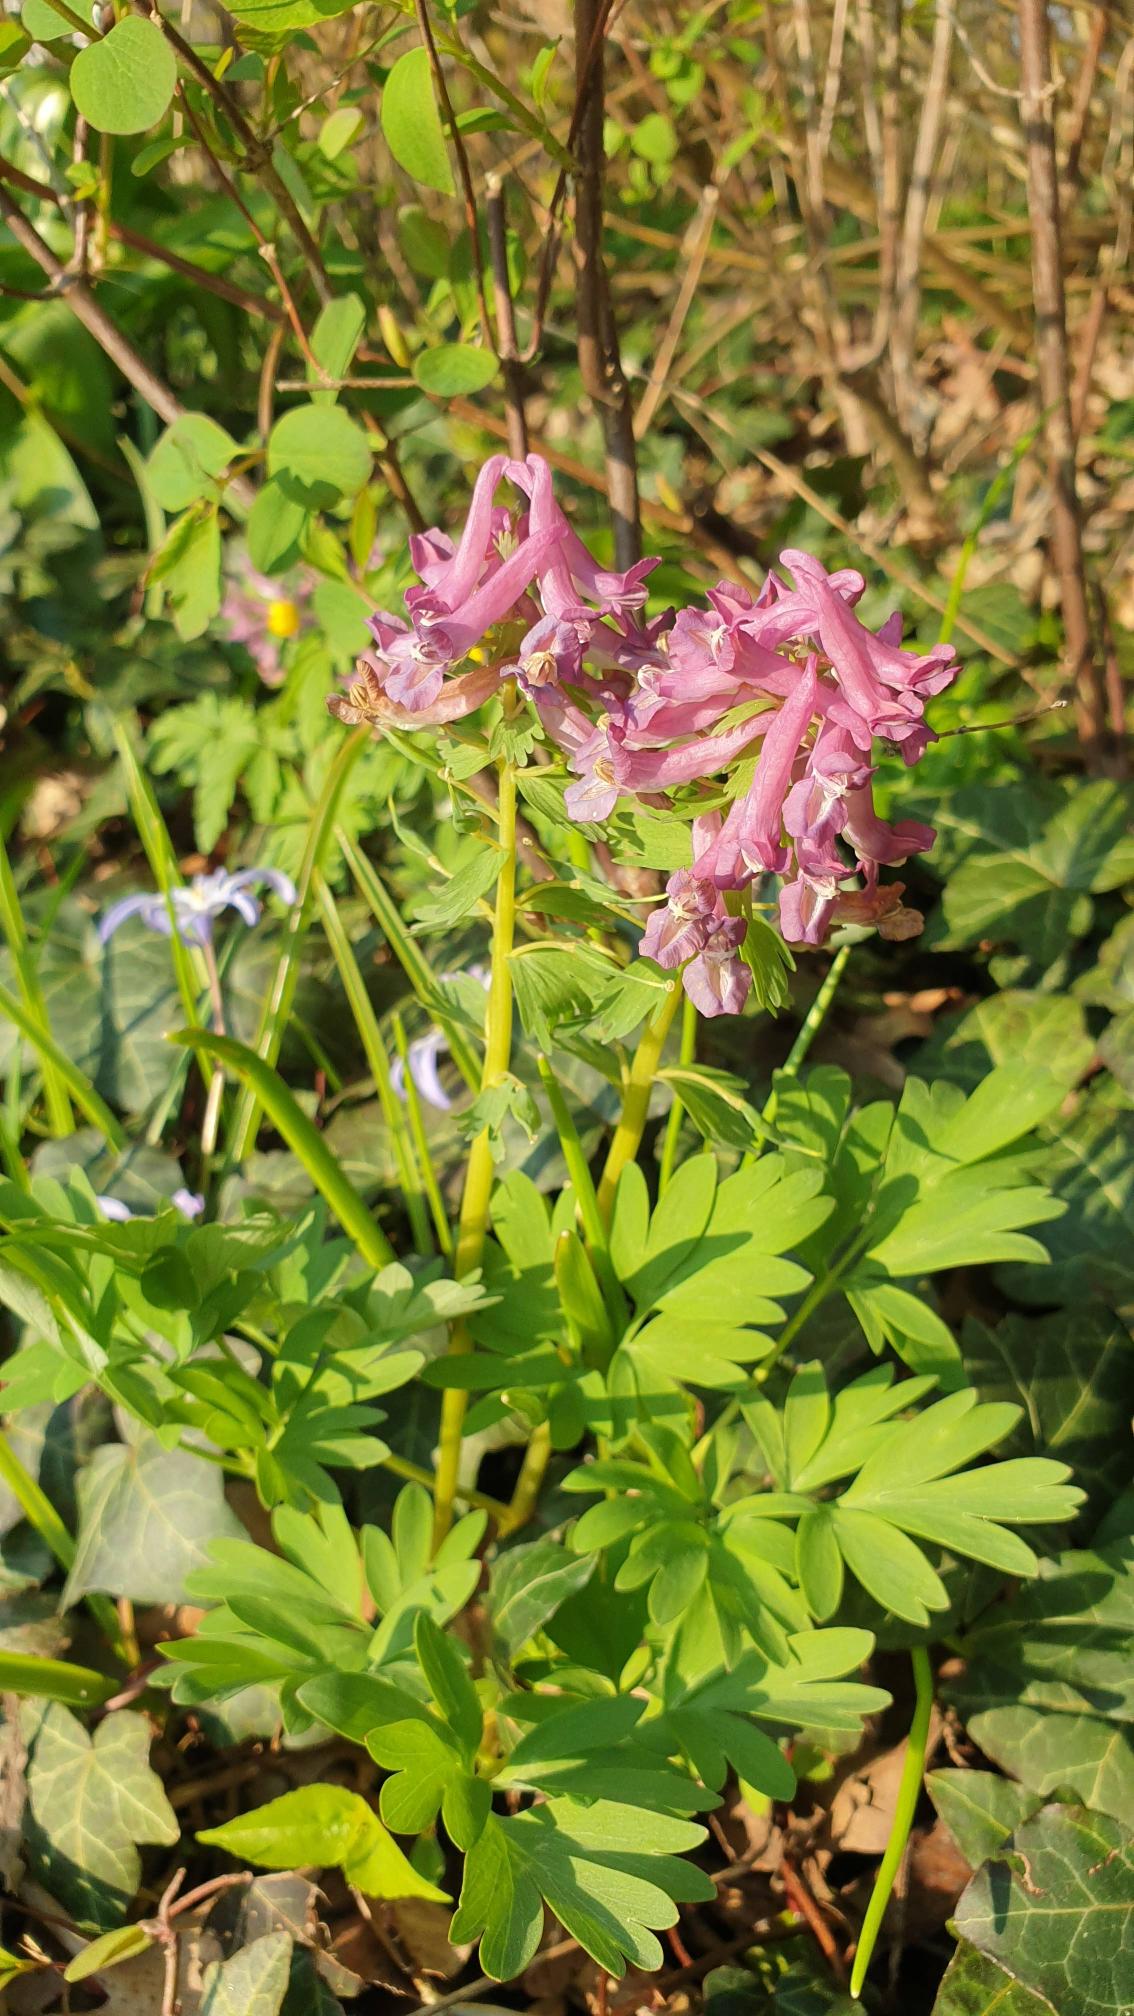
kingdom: Plantae
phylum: Tracheophyta
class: Magnoliopsida
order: Ranunculales
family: Papaveraceae
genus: Corydalis
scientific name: Corydalis solida
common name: Langstilket lærkespore
